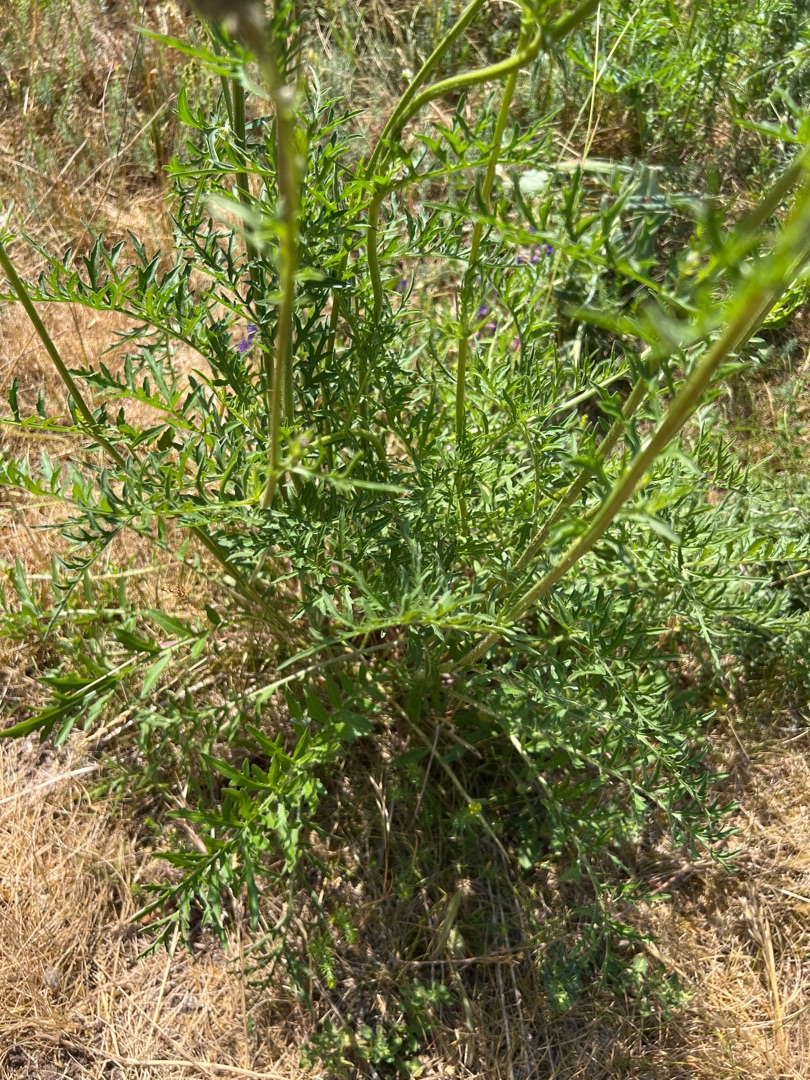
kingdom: Plantae
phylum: Tracheophyta
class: Magnoliopsida
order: Asterales
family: Asteraceae
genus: Centaurea
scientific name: Centaurea scabiosa
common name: Stor knopurt
